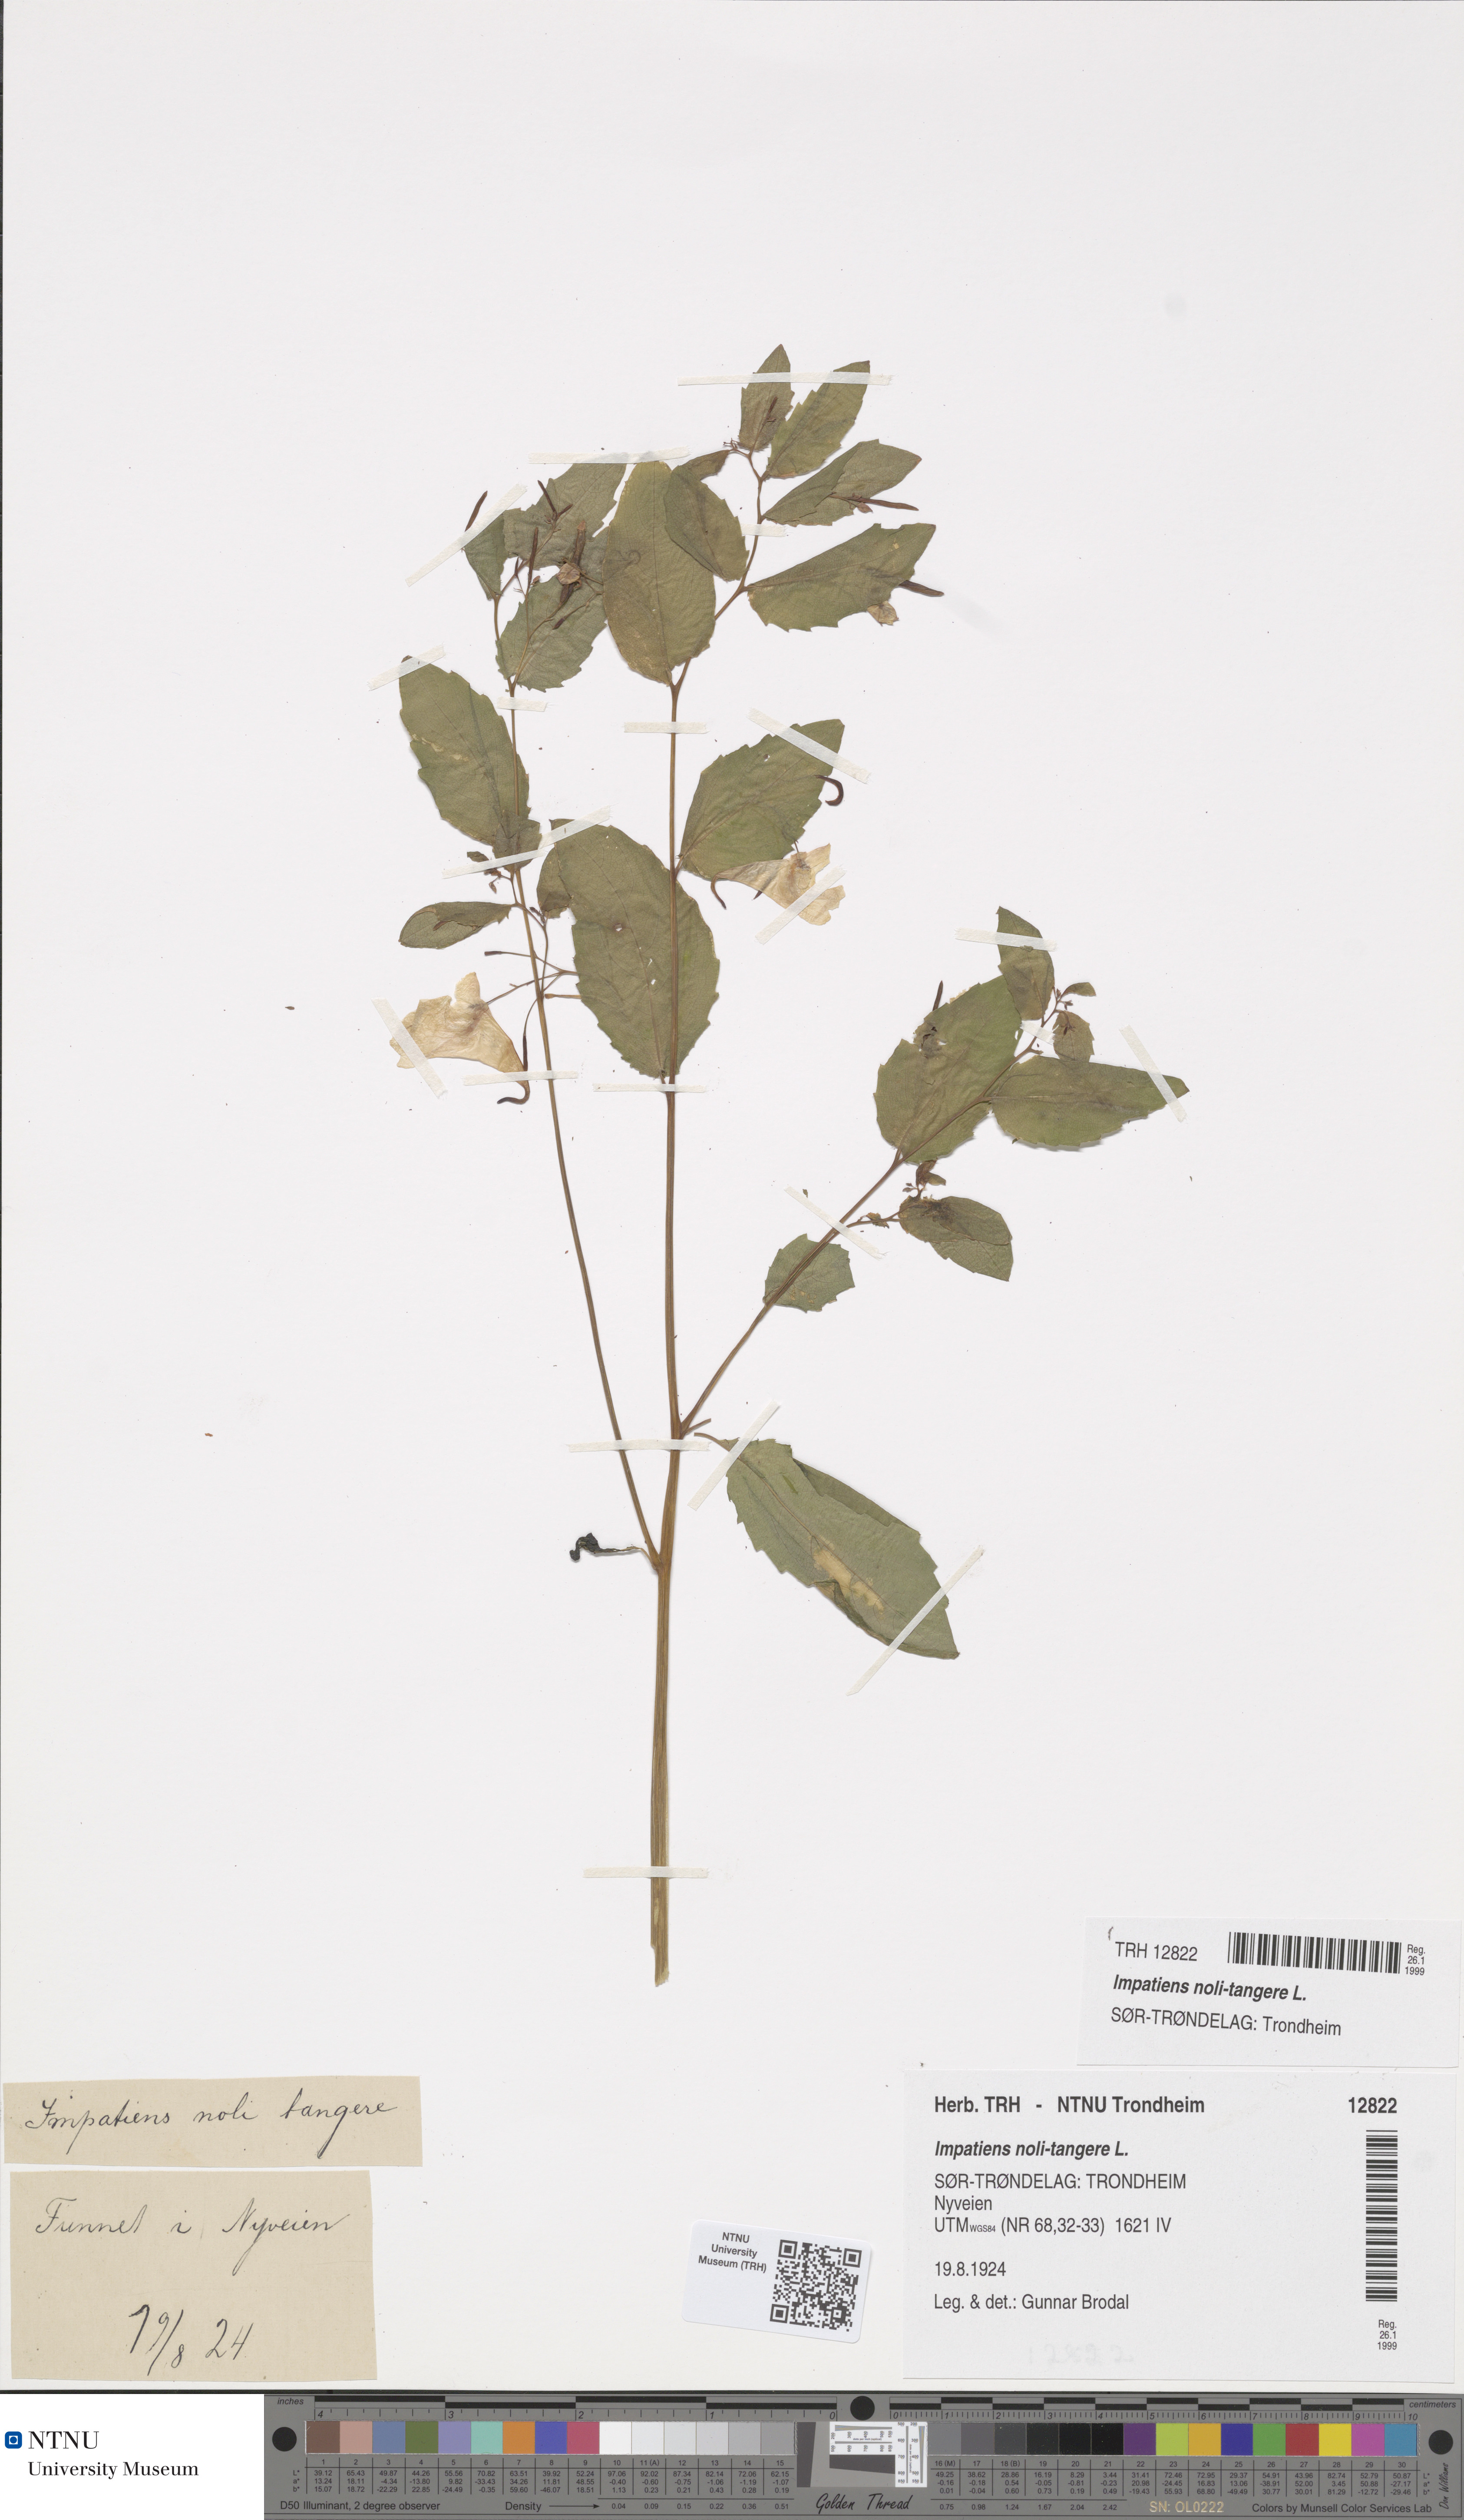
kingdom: Plantae
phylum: Tracheophyta
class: Magnoliopsida
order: Ericales
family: Balsaminaceae
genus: Impatiens
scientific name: Impatiens noli-tangere
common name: Touch-me-not balsam
